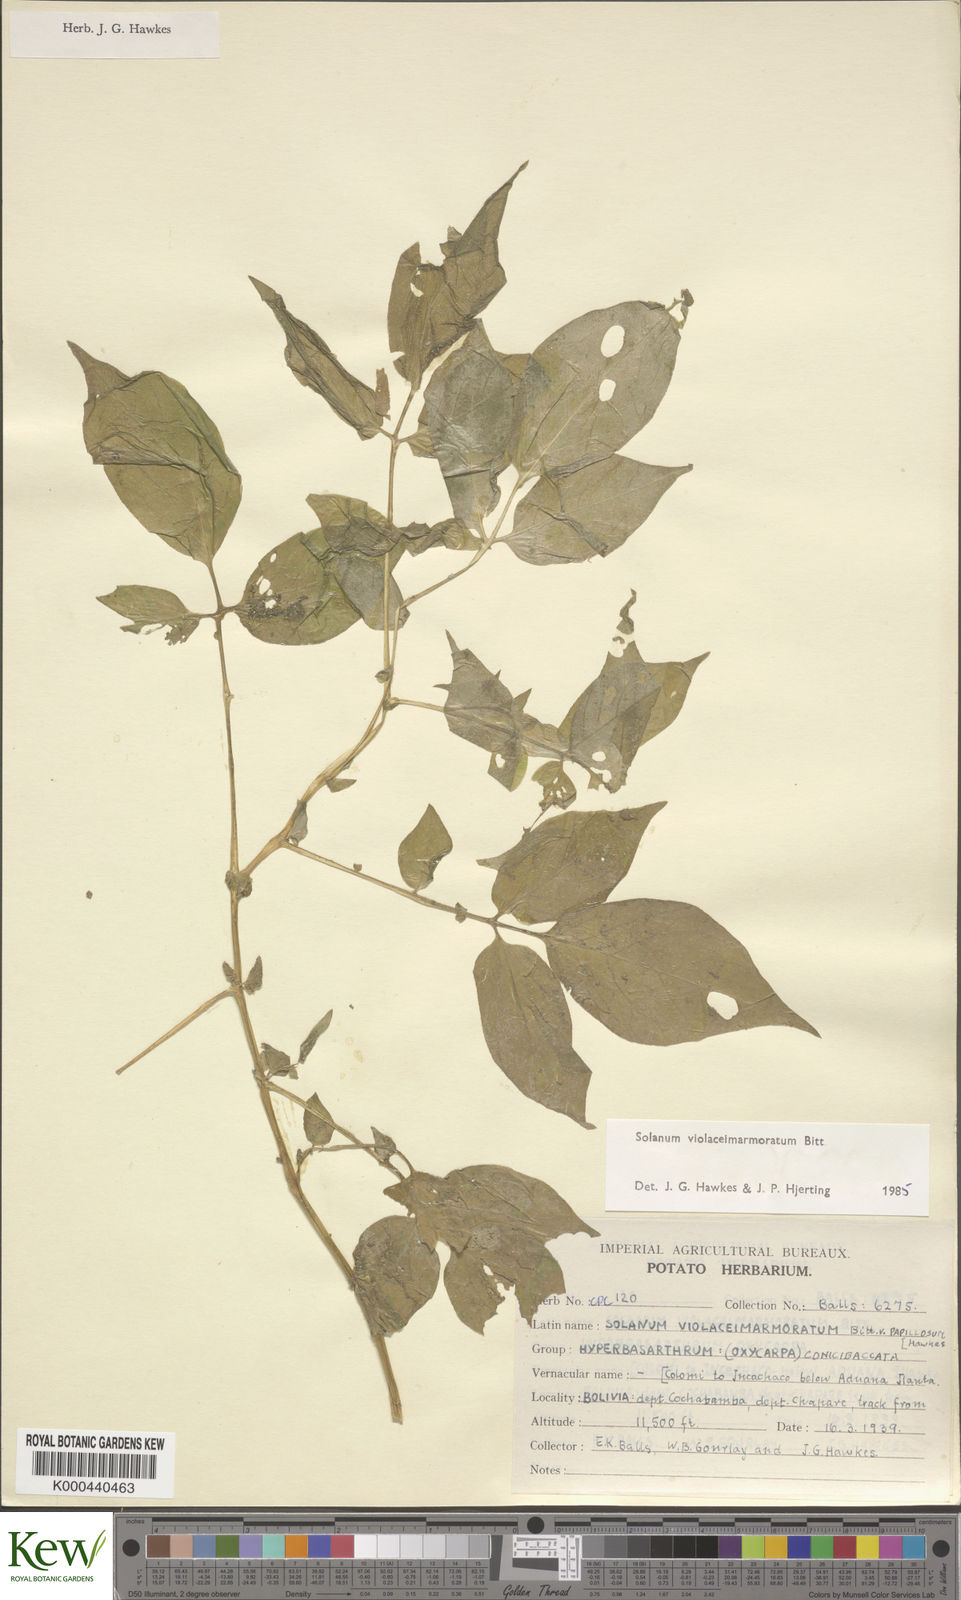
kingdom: Plantae
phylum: Tracheophyta
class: Magnoliopsida
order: Solanales
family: Solanaceae
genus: Solanum
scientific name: Solanum violaceimarmoratum
